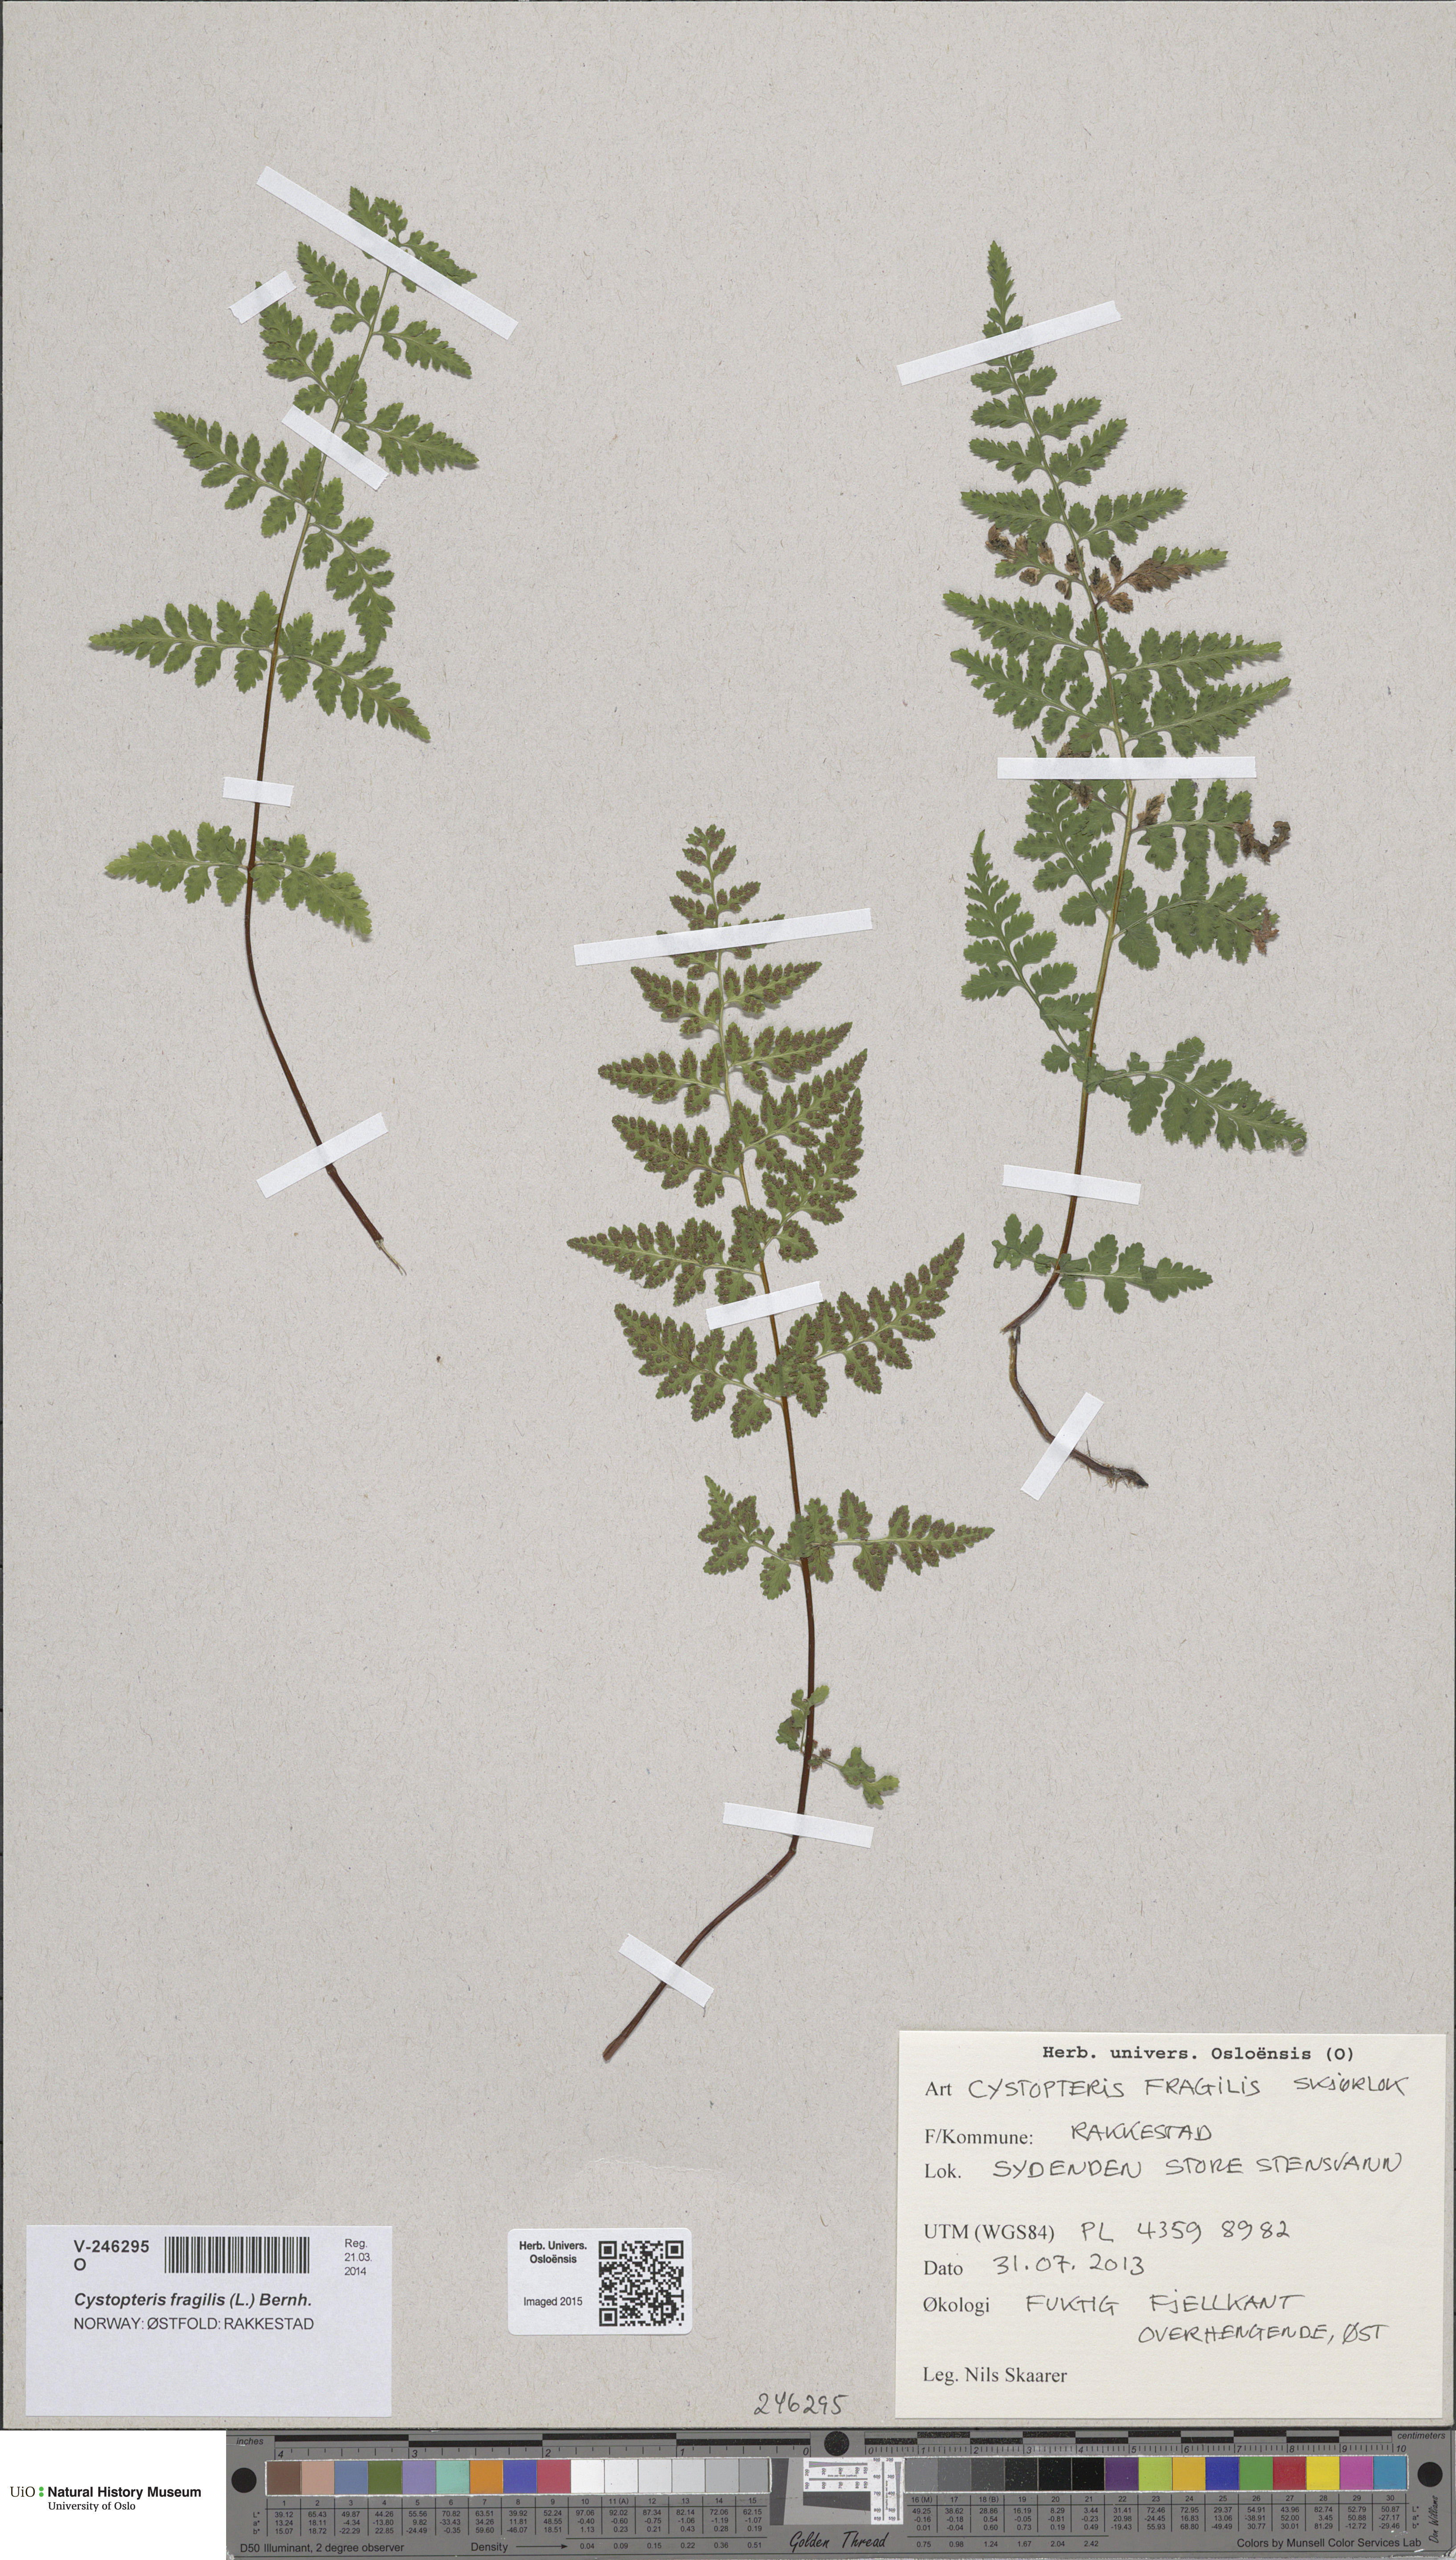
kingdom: Plantae
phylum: Tracheophyta
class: Polypodiopsida
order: Polypodiales
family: Cystopteridaceae
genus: Cystopteris
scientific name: Cystopteris fragilis
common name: Brittle bladder fern
